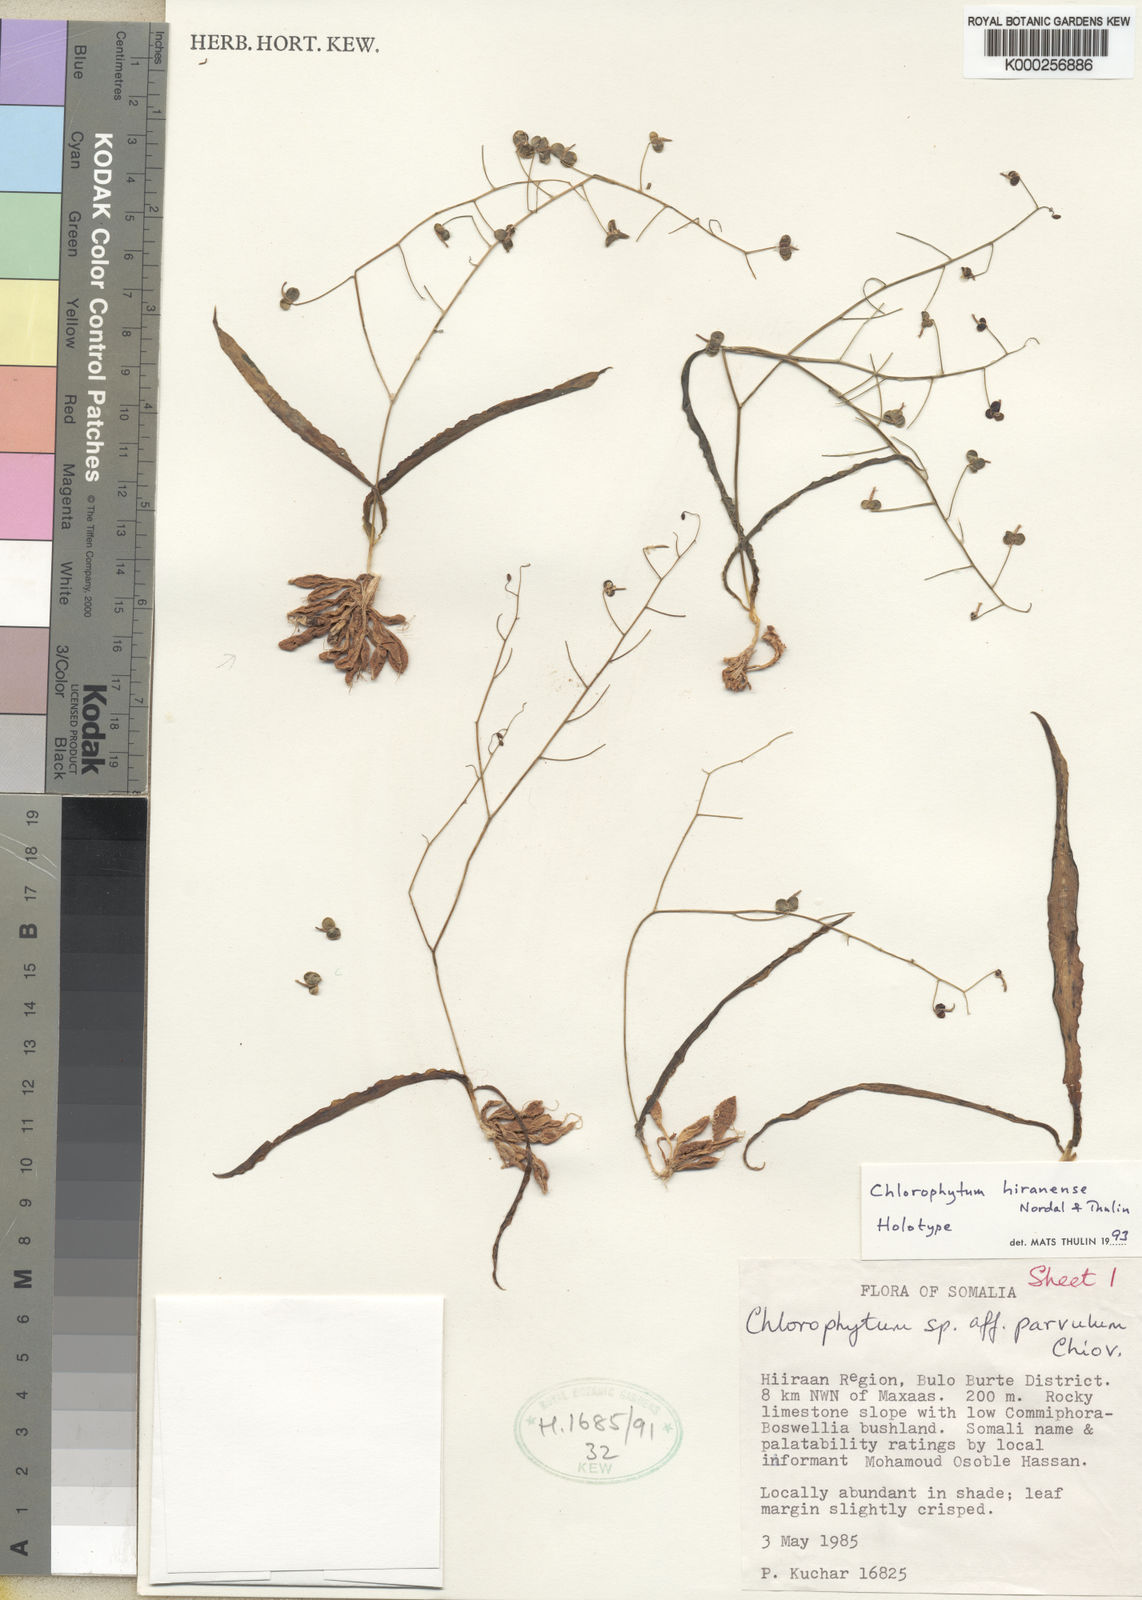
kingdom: Plantae
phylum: Tracheophyta
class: Liliopsida
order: Asparagales
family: Asparagaceae
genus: Chlorophytum
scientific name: Chlorophytum hiranense
